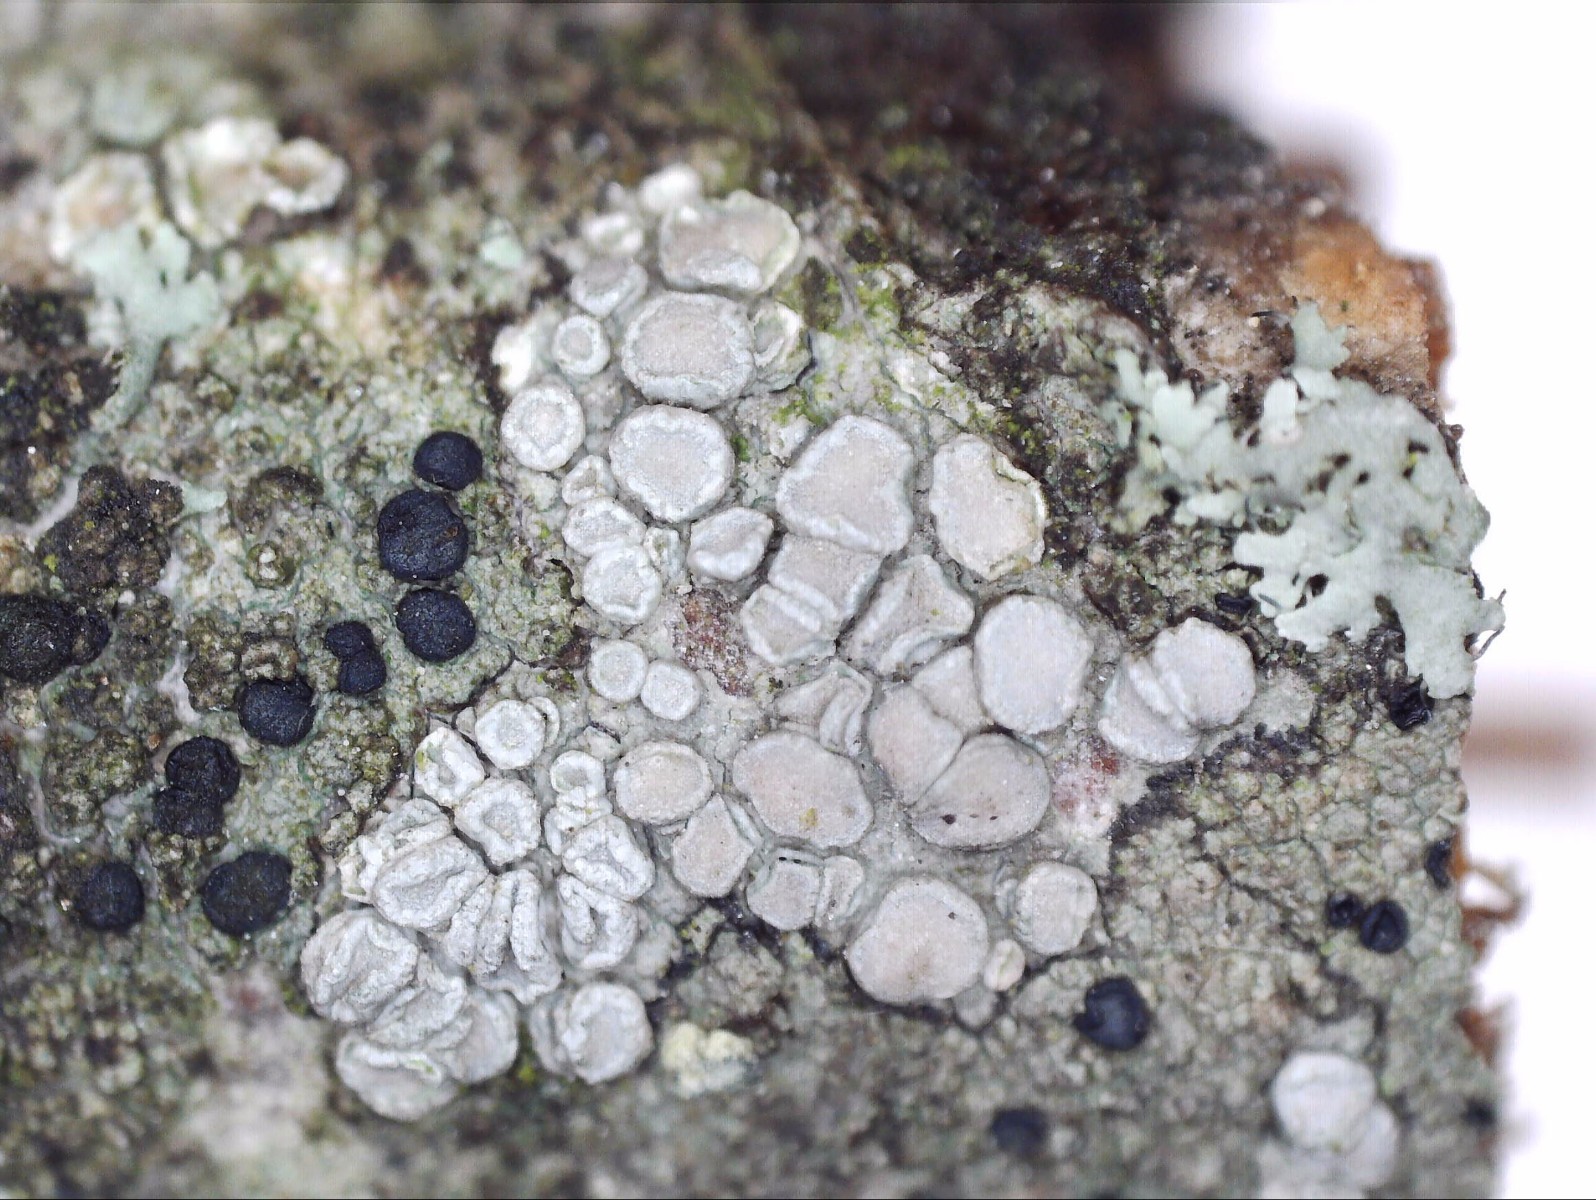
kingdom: Fungi
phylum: Ascomycota
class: Lecanoromycetes
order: Lecanorales
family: Lecanoraceae
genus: Glaucomaria
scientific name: Glaucomaria carpinea
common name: hviddugget kantskivelav
